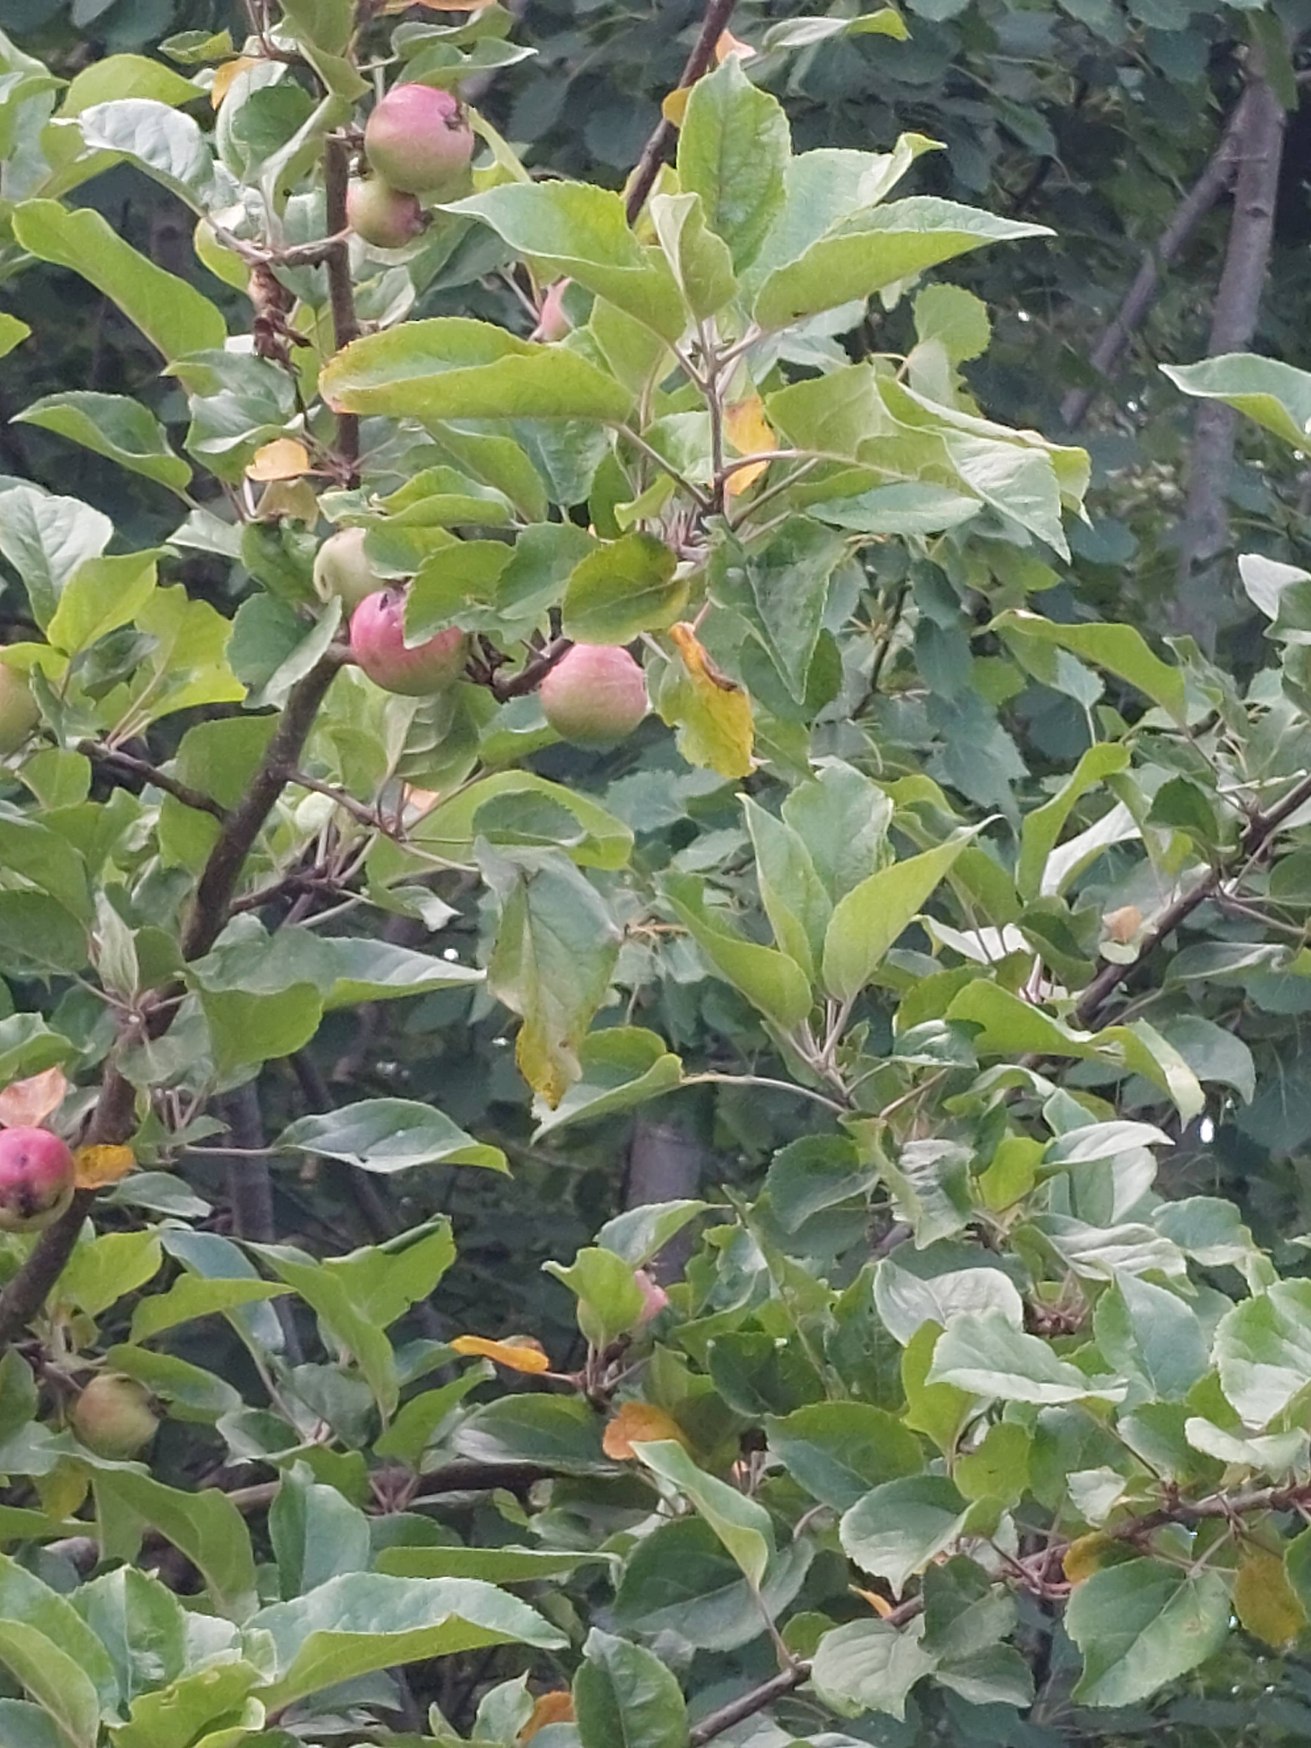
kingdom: Plantae
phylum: Tracheophyta
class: Magnoliopsida
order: Rosales
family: Rosaceae
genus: Malus
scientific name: Malus domestica
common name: Sød-æble
